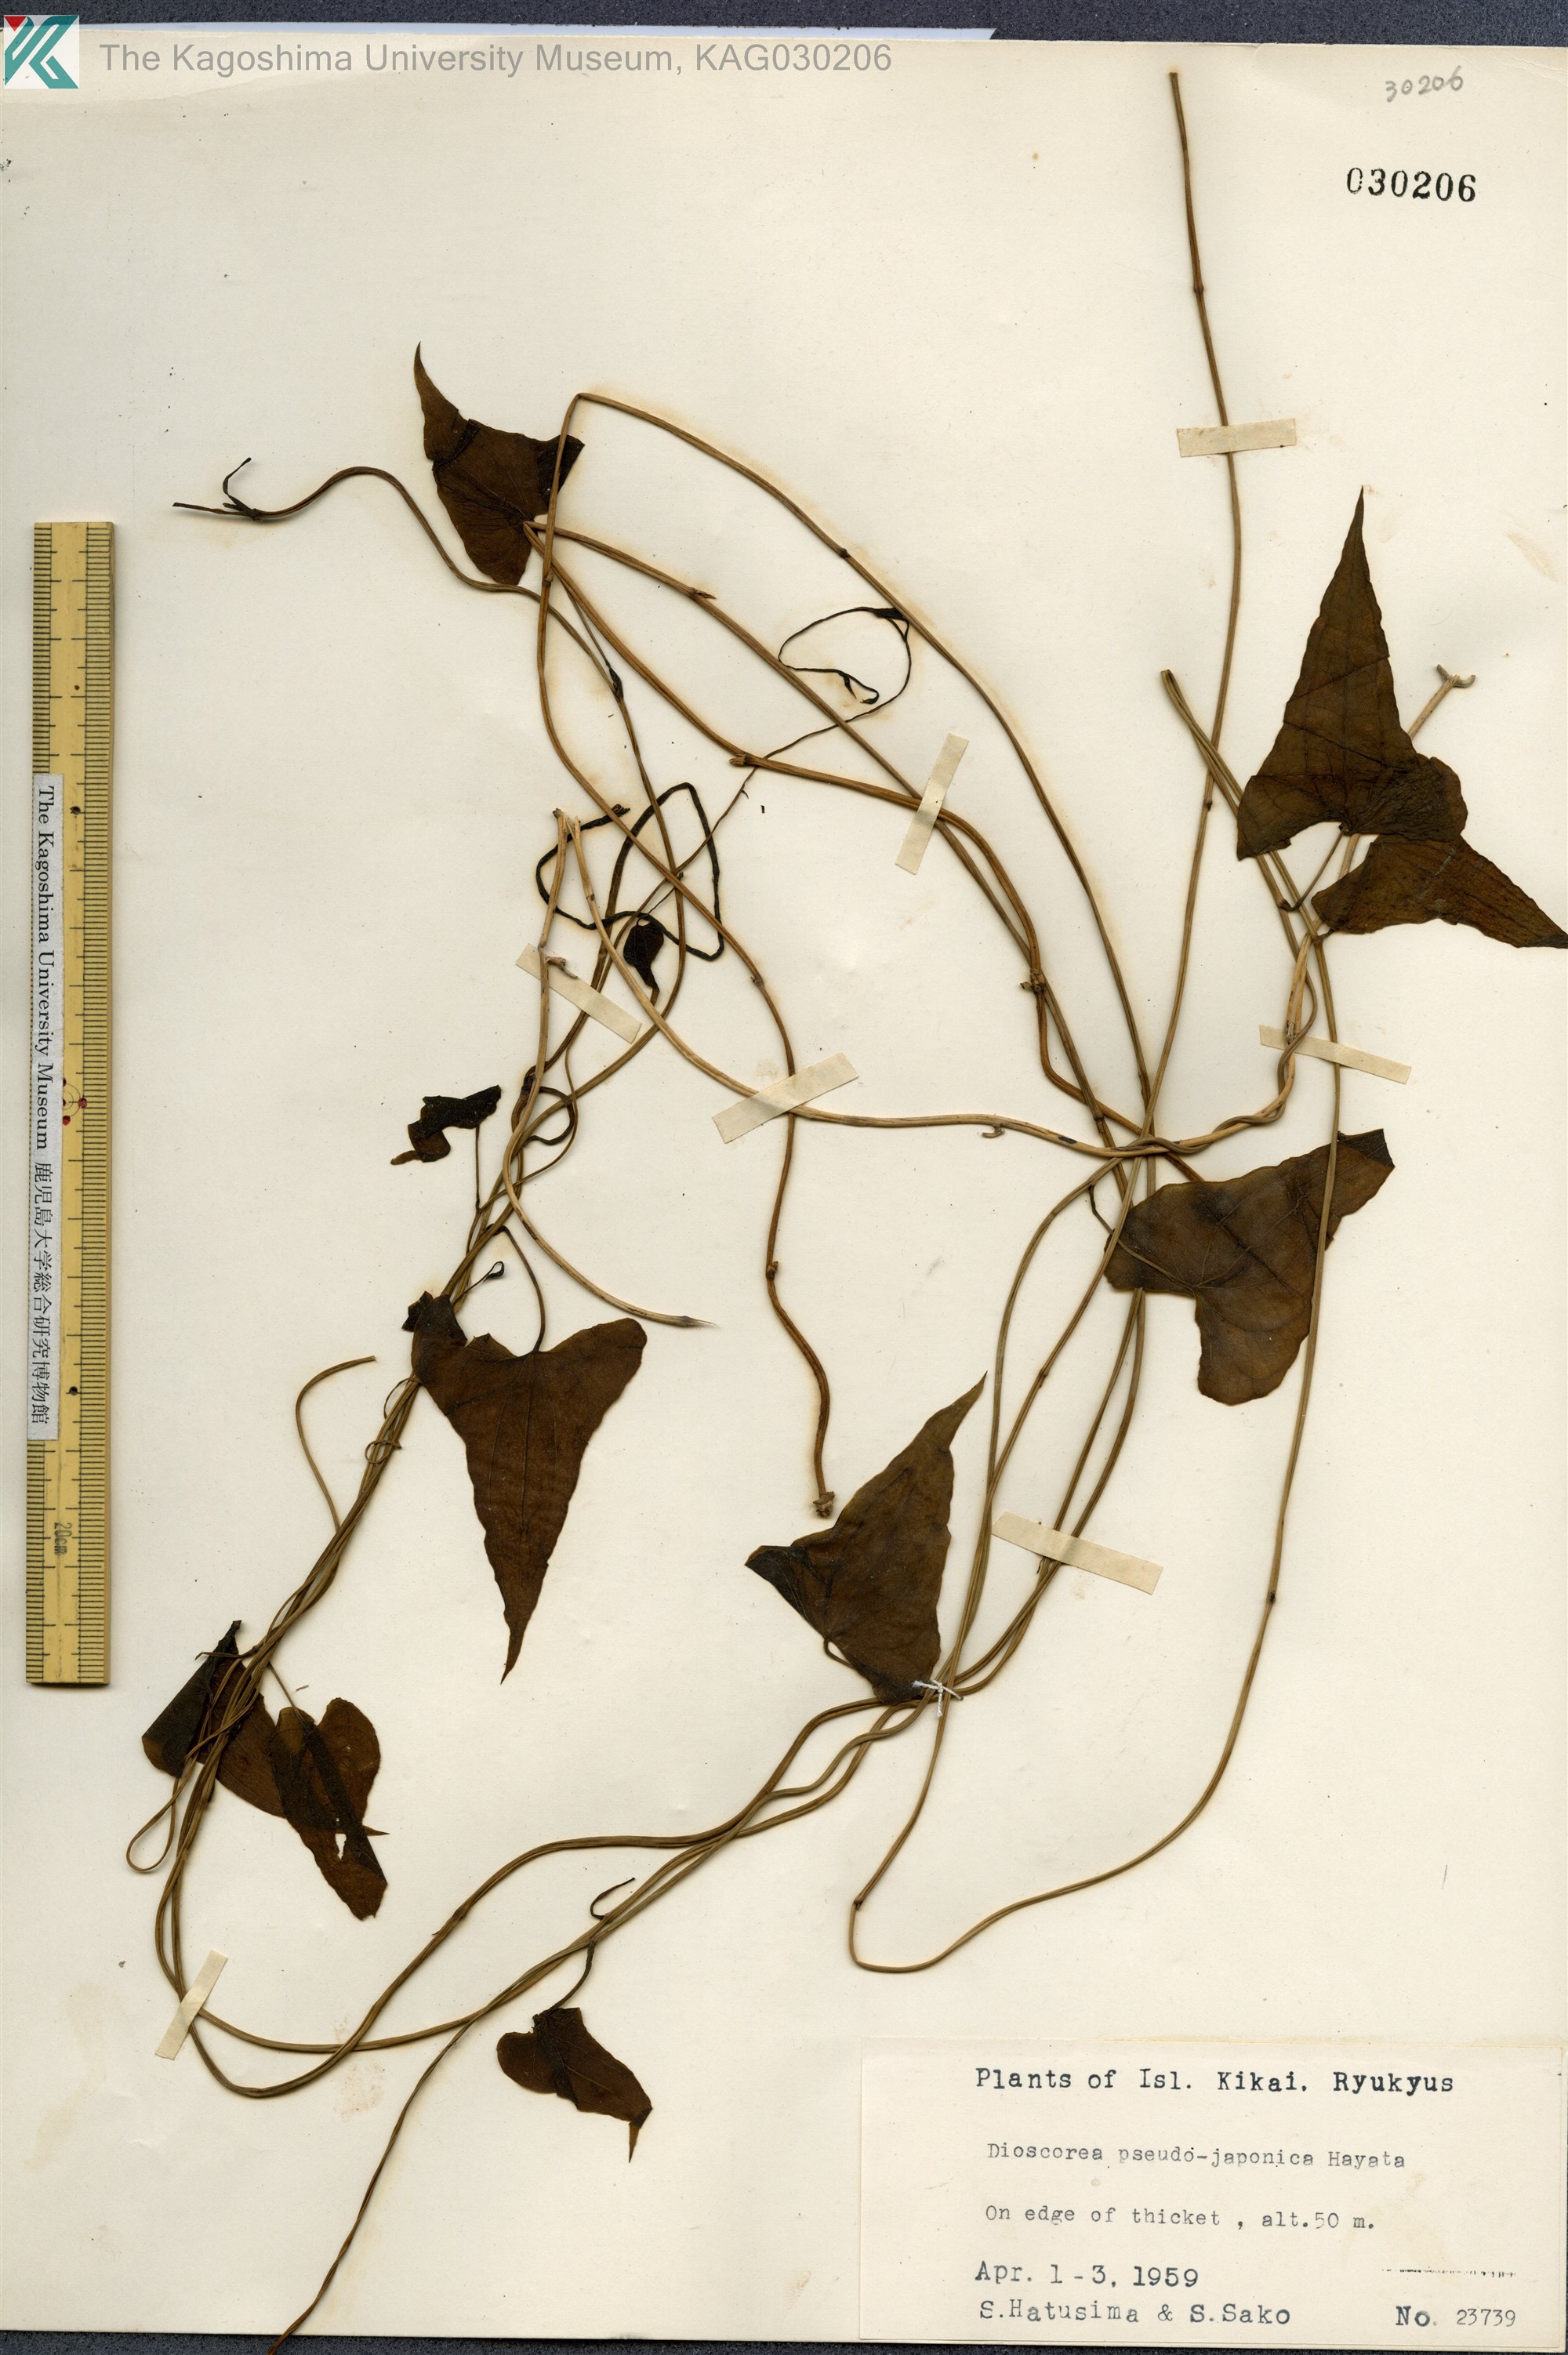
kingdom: Plantae
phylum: Tracheophyta
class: Liliopsida
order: Dioscoreales
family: Dioscoreaceae
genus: Dioscorea
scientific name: Dioscorea pseudojaponica
